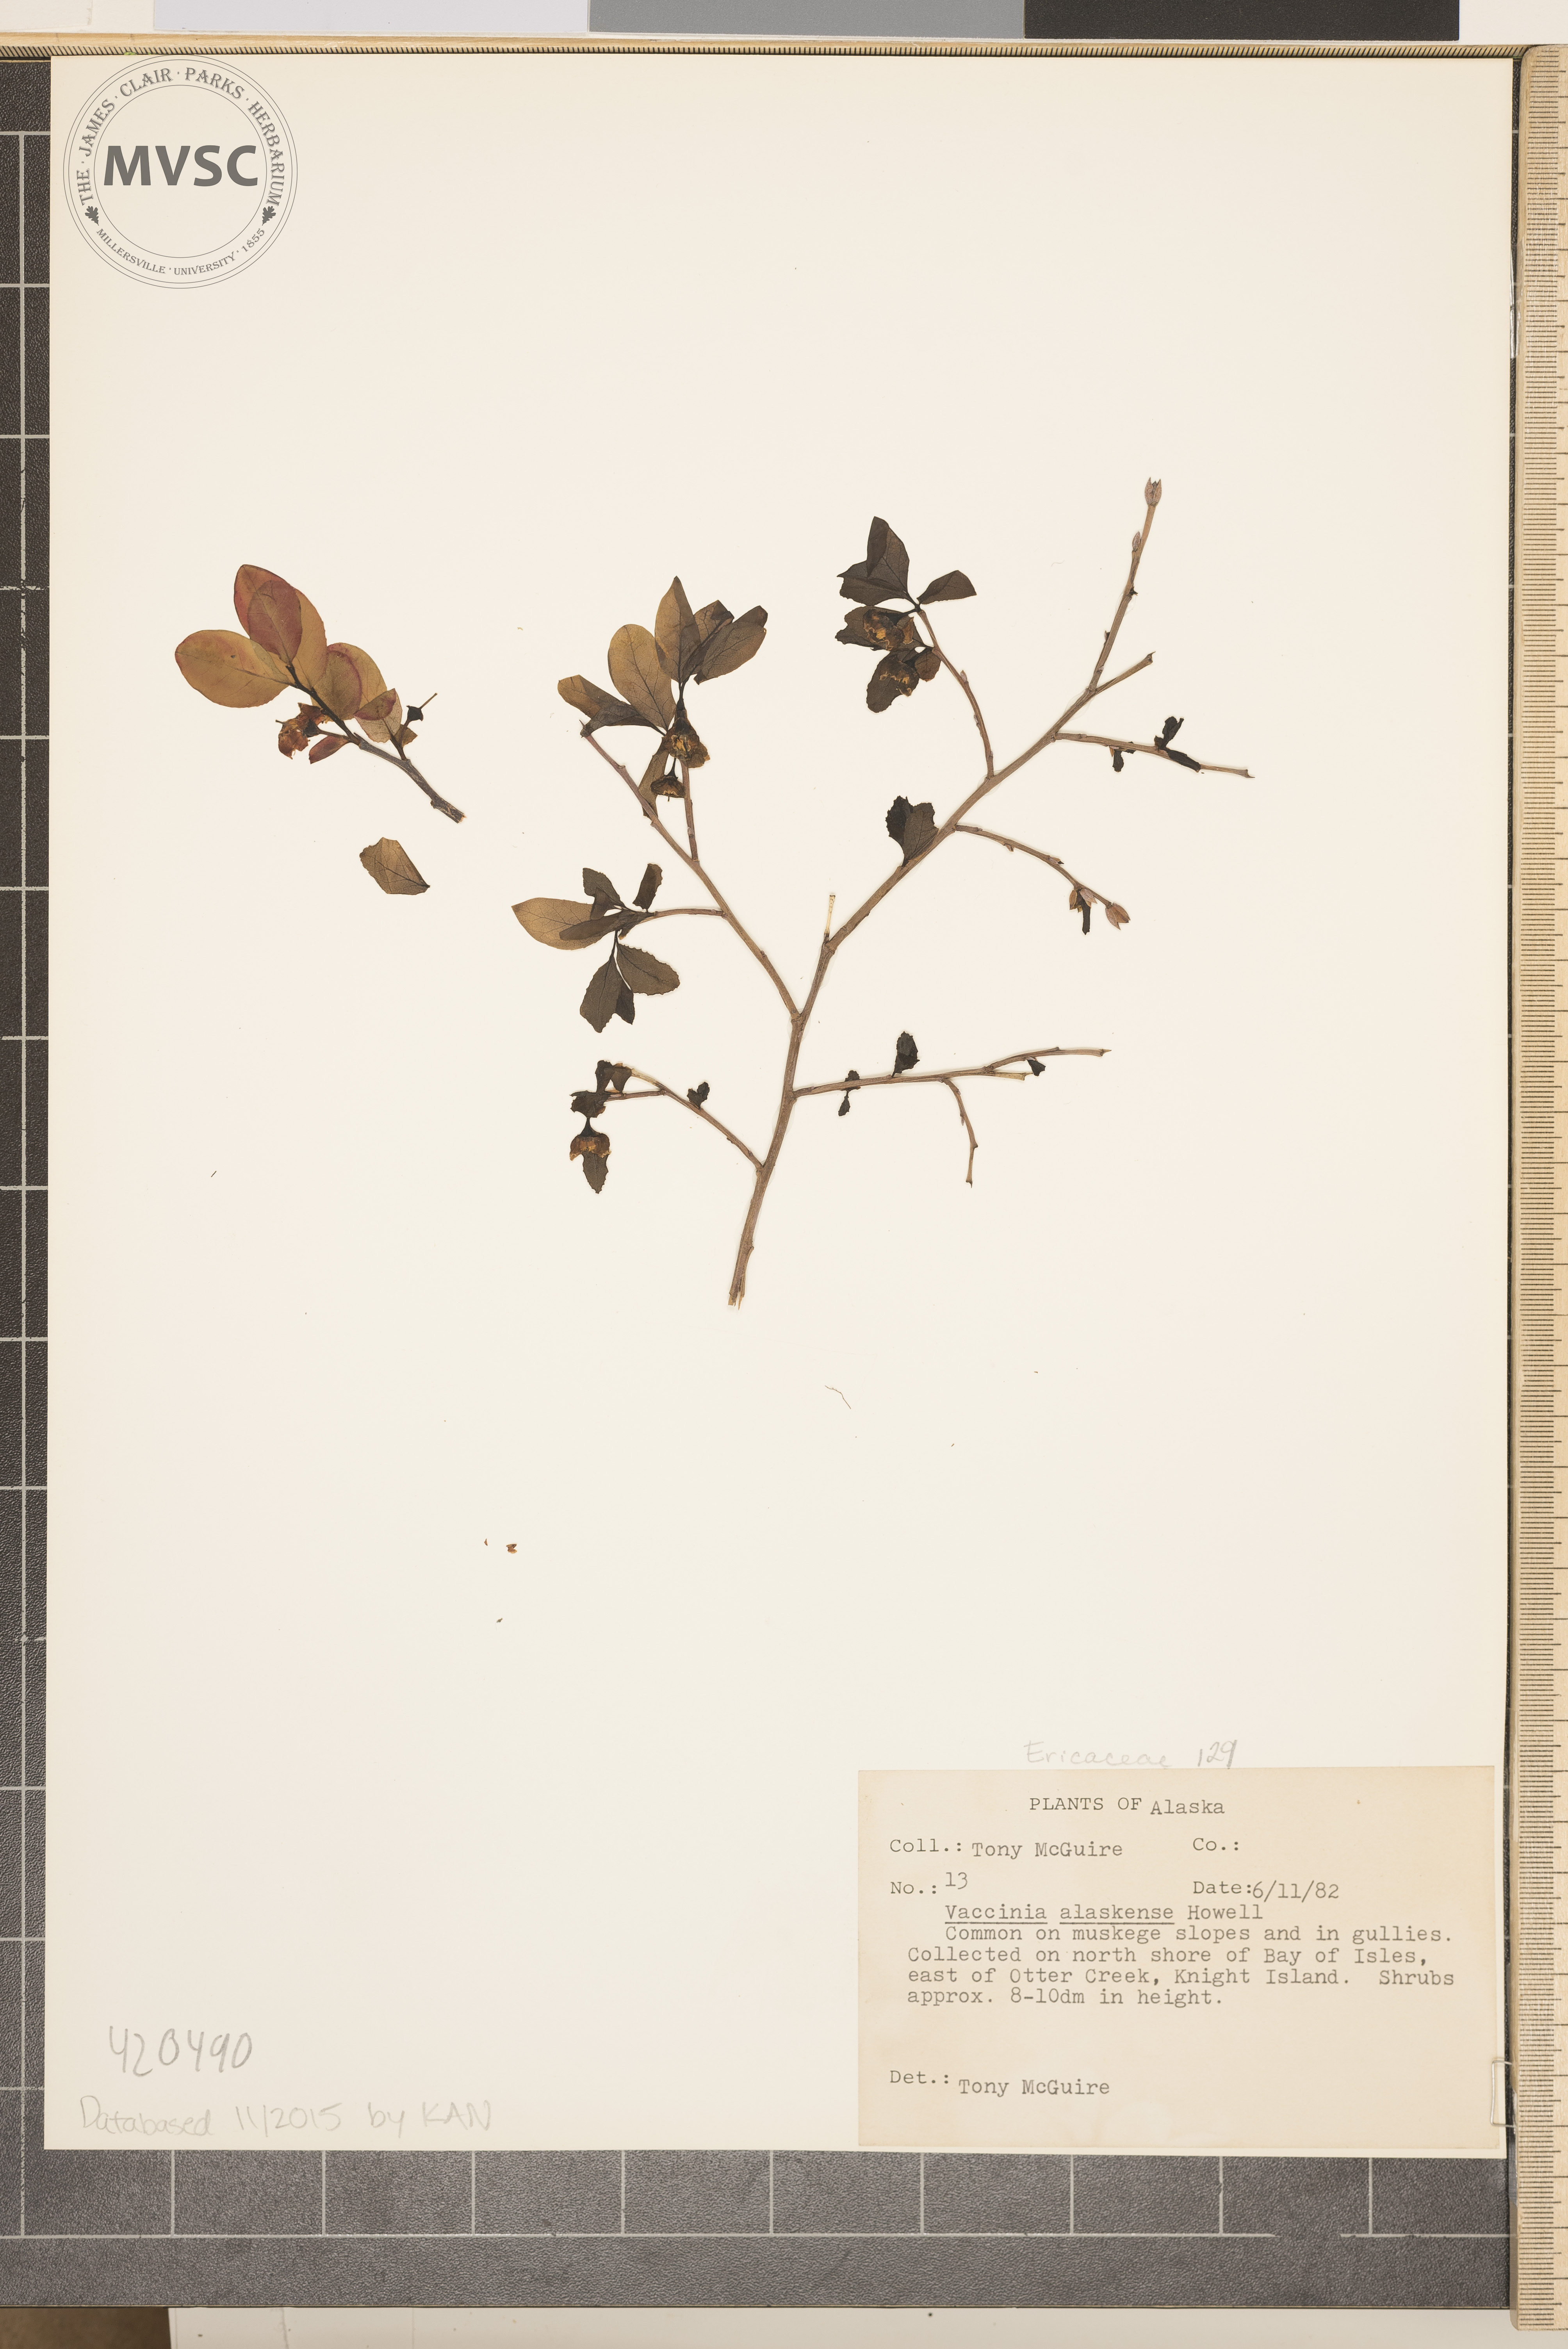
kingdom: Plantae
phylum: Tracheophyta
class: Magnoliopsida
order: Ericales
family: Ericaceae
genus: Vaccinium
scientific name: Vaccinium ovalifolium
